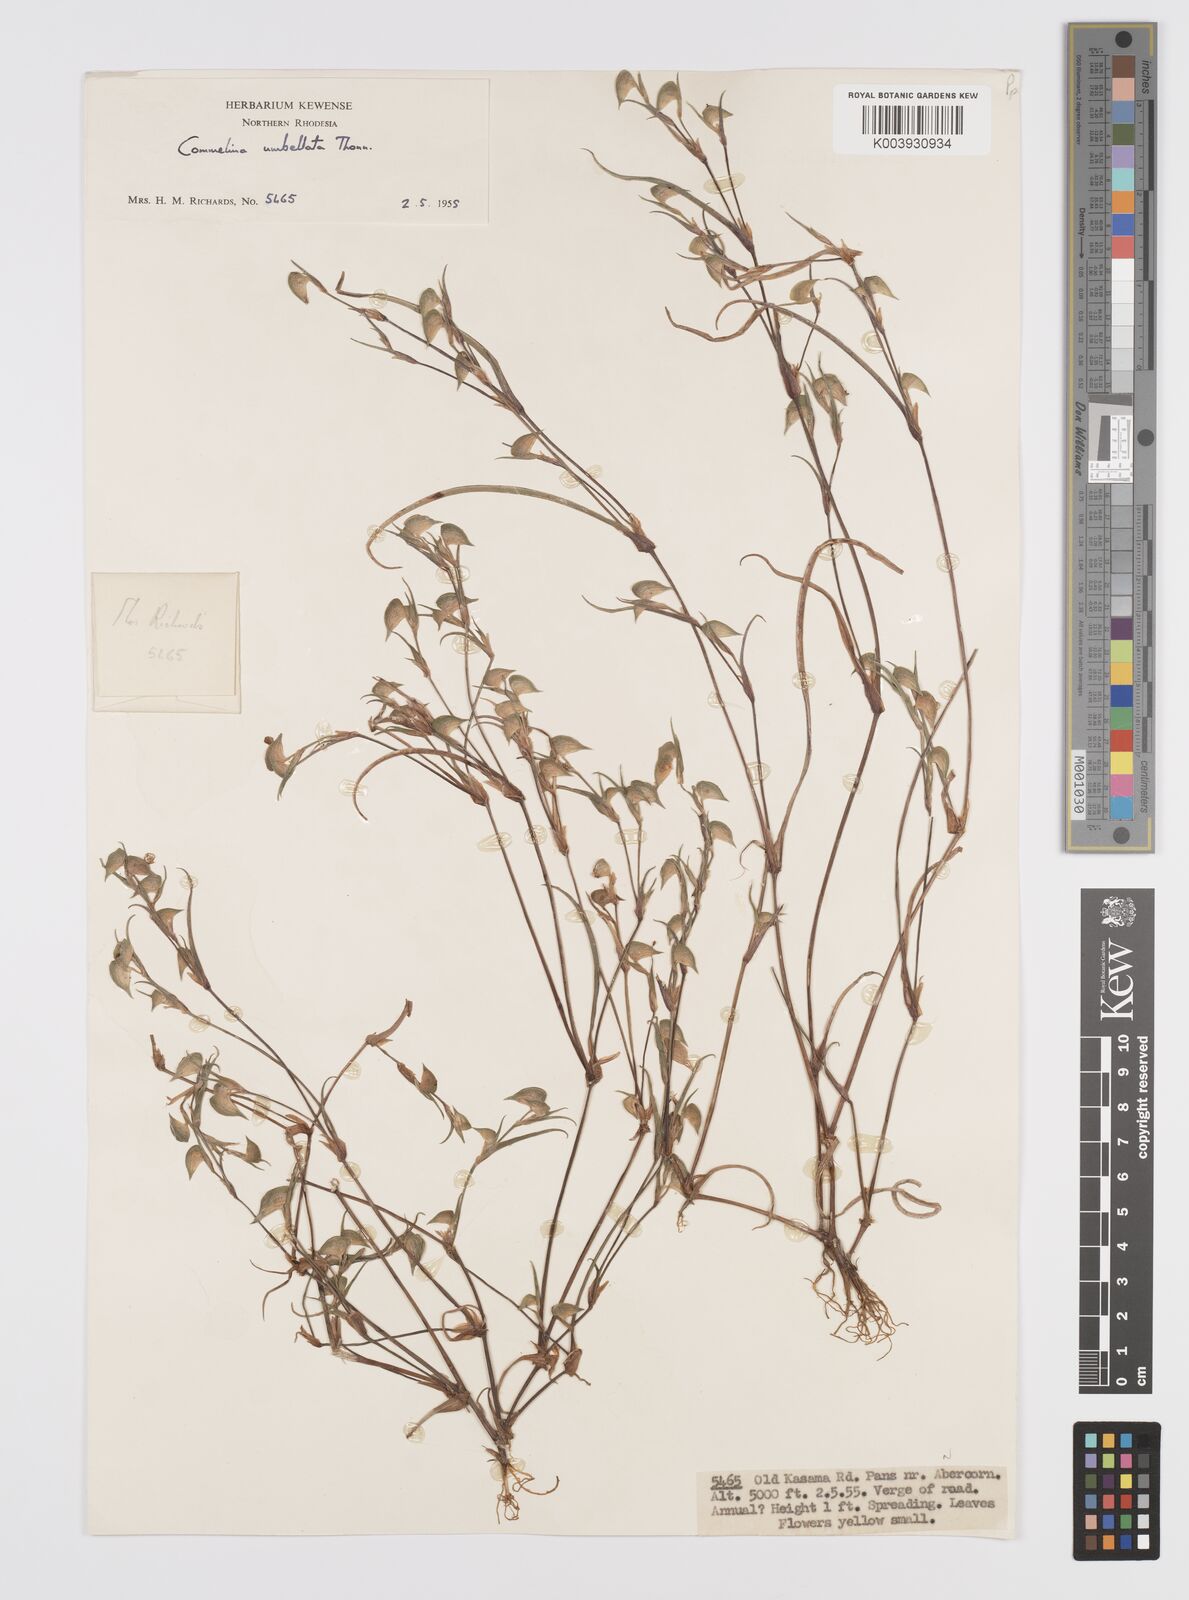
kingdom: Plantae
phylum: Tracheophyta
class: Liliopsida
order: Commelinales
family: Commelinaceae
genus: Commelina
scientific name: Commelina nigritana
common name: African dayflower
